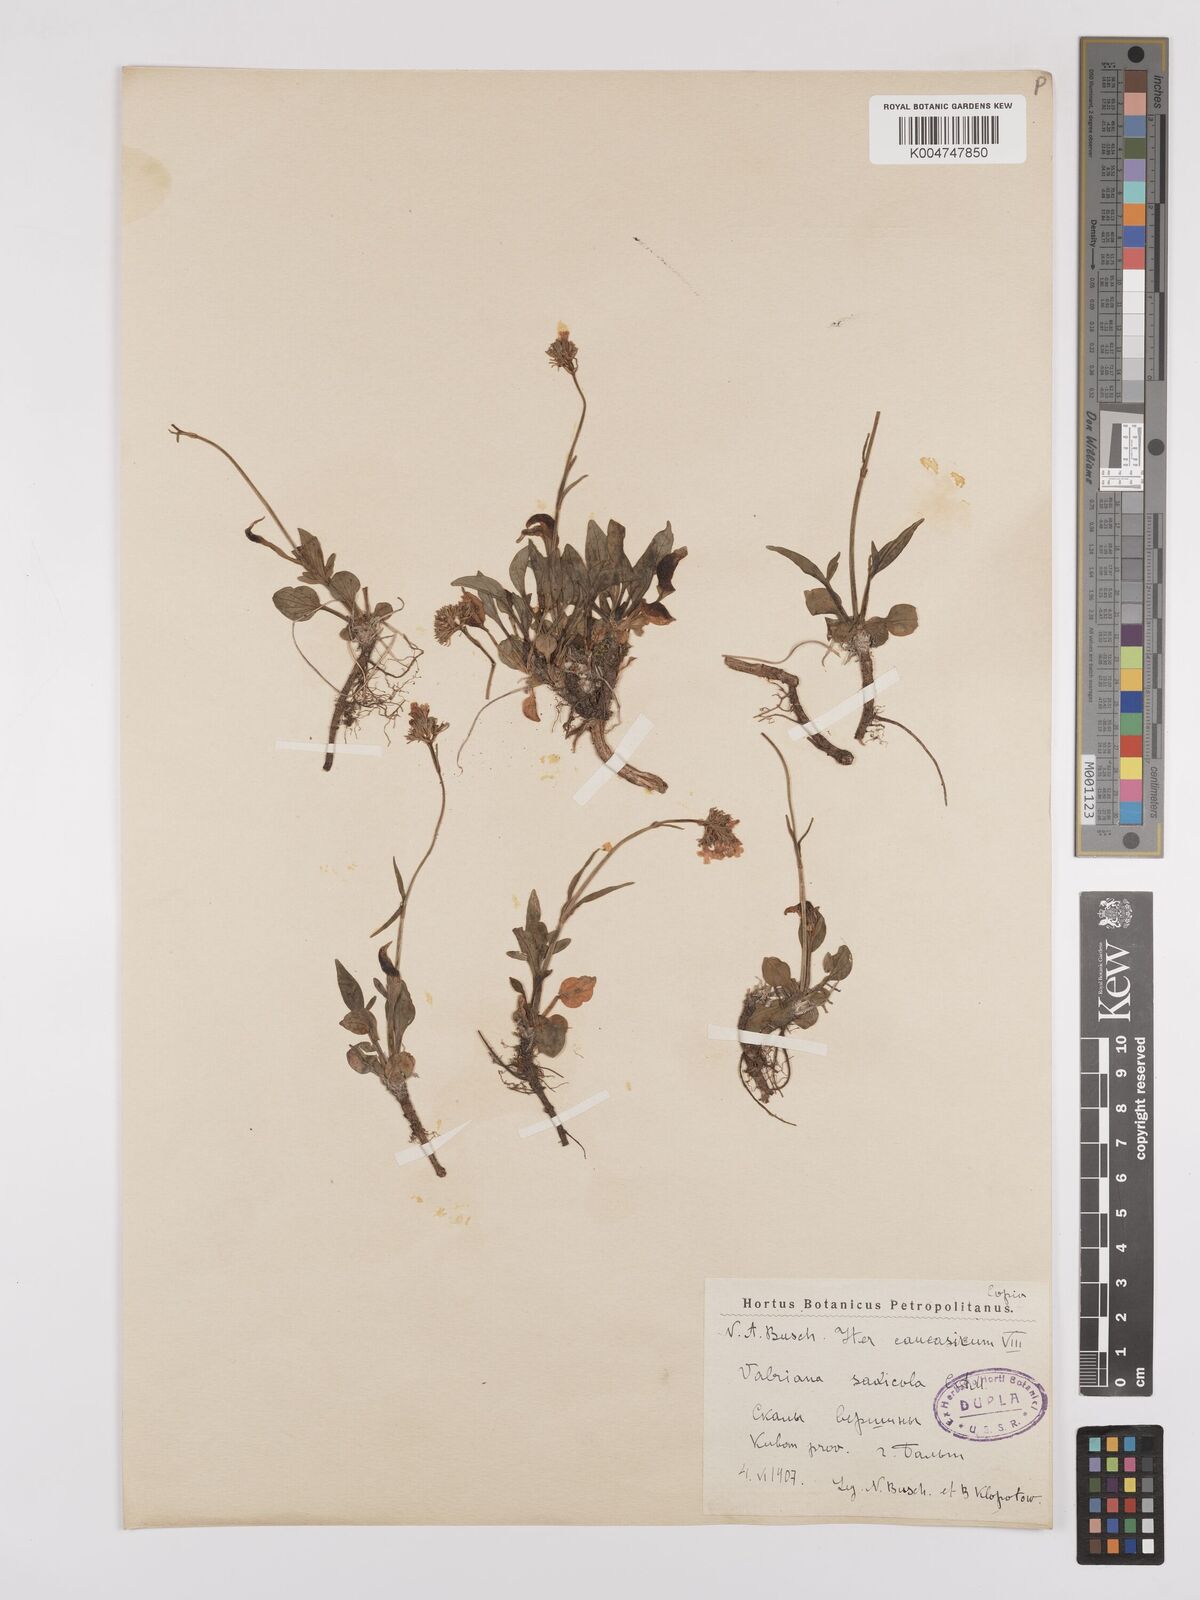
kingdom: Plantae
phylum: Tracheophyta
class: Magnoliopsida
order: Dipsacales
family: Caprifoliaceae
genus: Valeriana
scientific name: Valeriana saxicola
